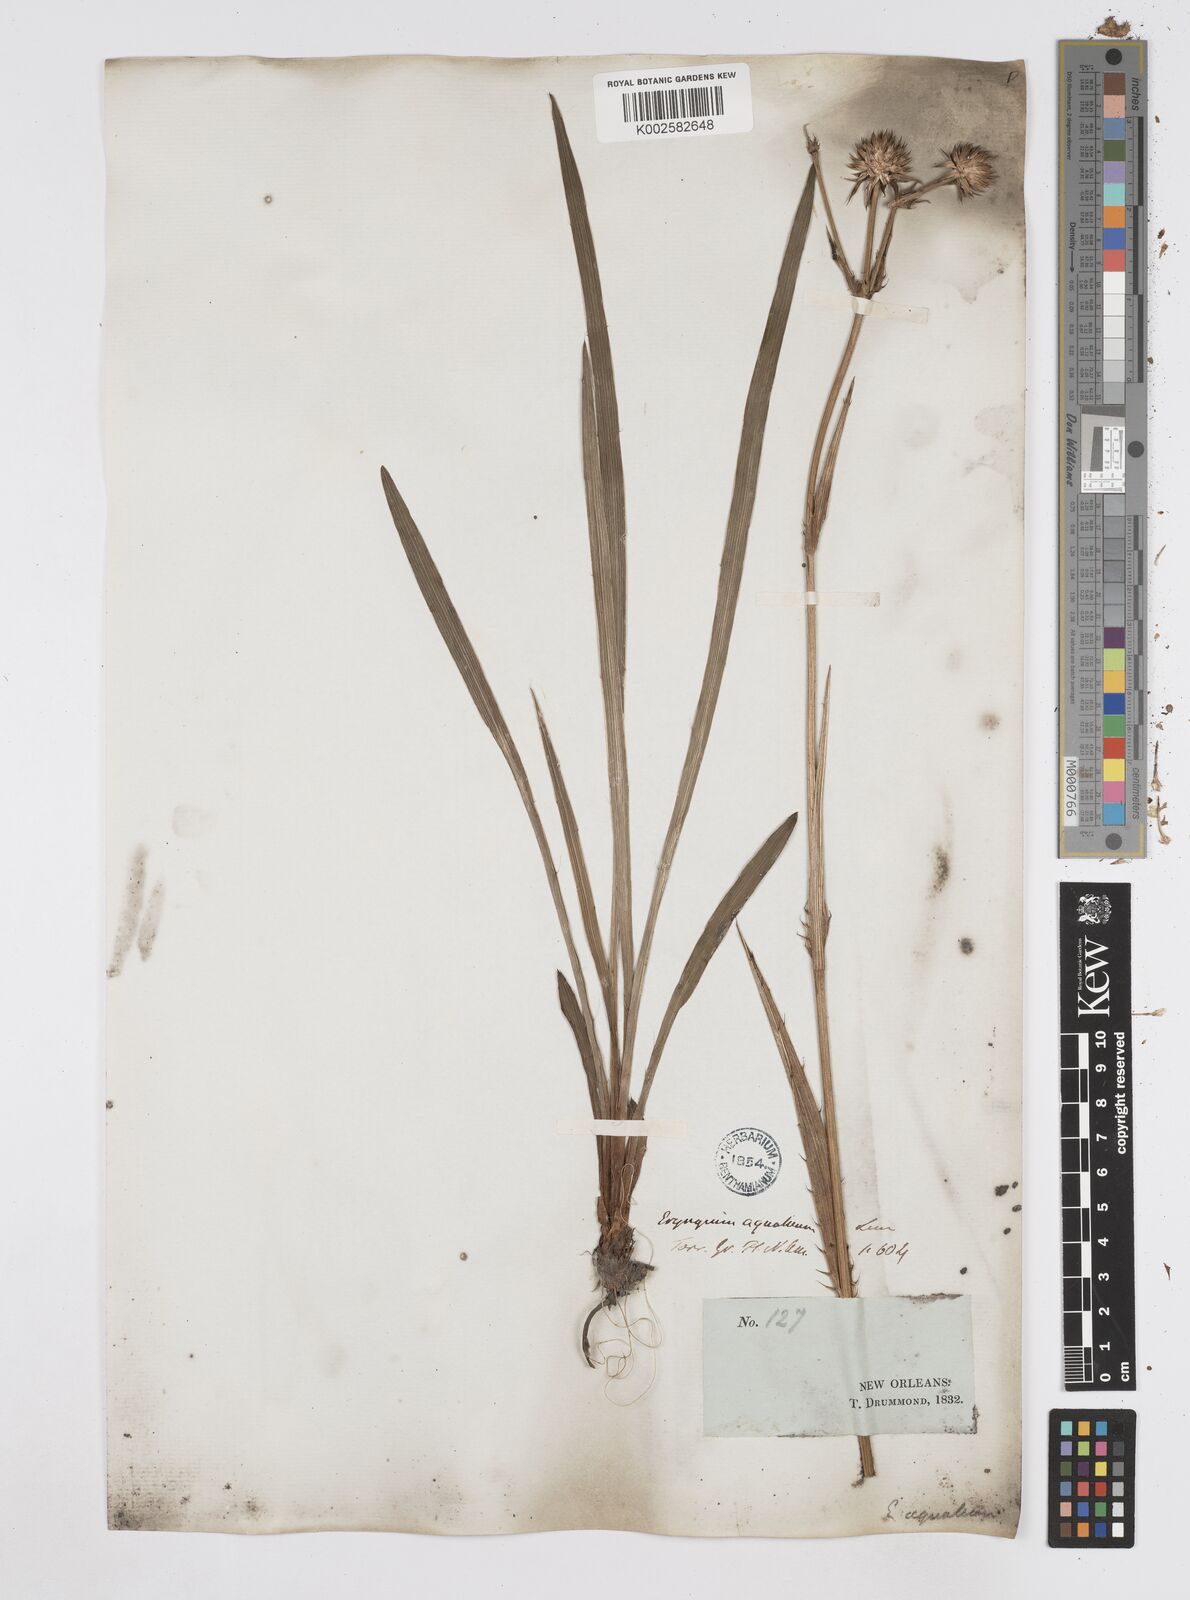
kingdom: Plantae
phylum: Tracheophyta
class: Magnoliopsida
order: Apiales
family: Apiaceae
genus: Eryngium
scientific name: Eryngium yuccifolium
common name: Button eryngo
